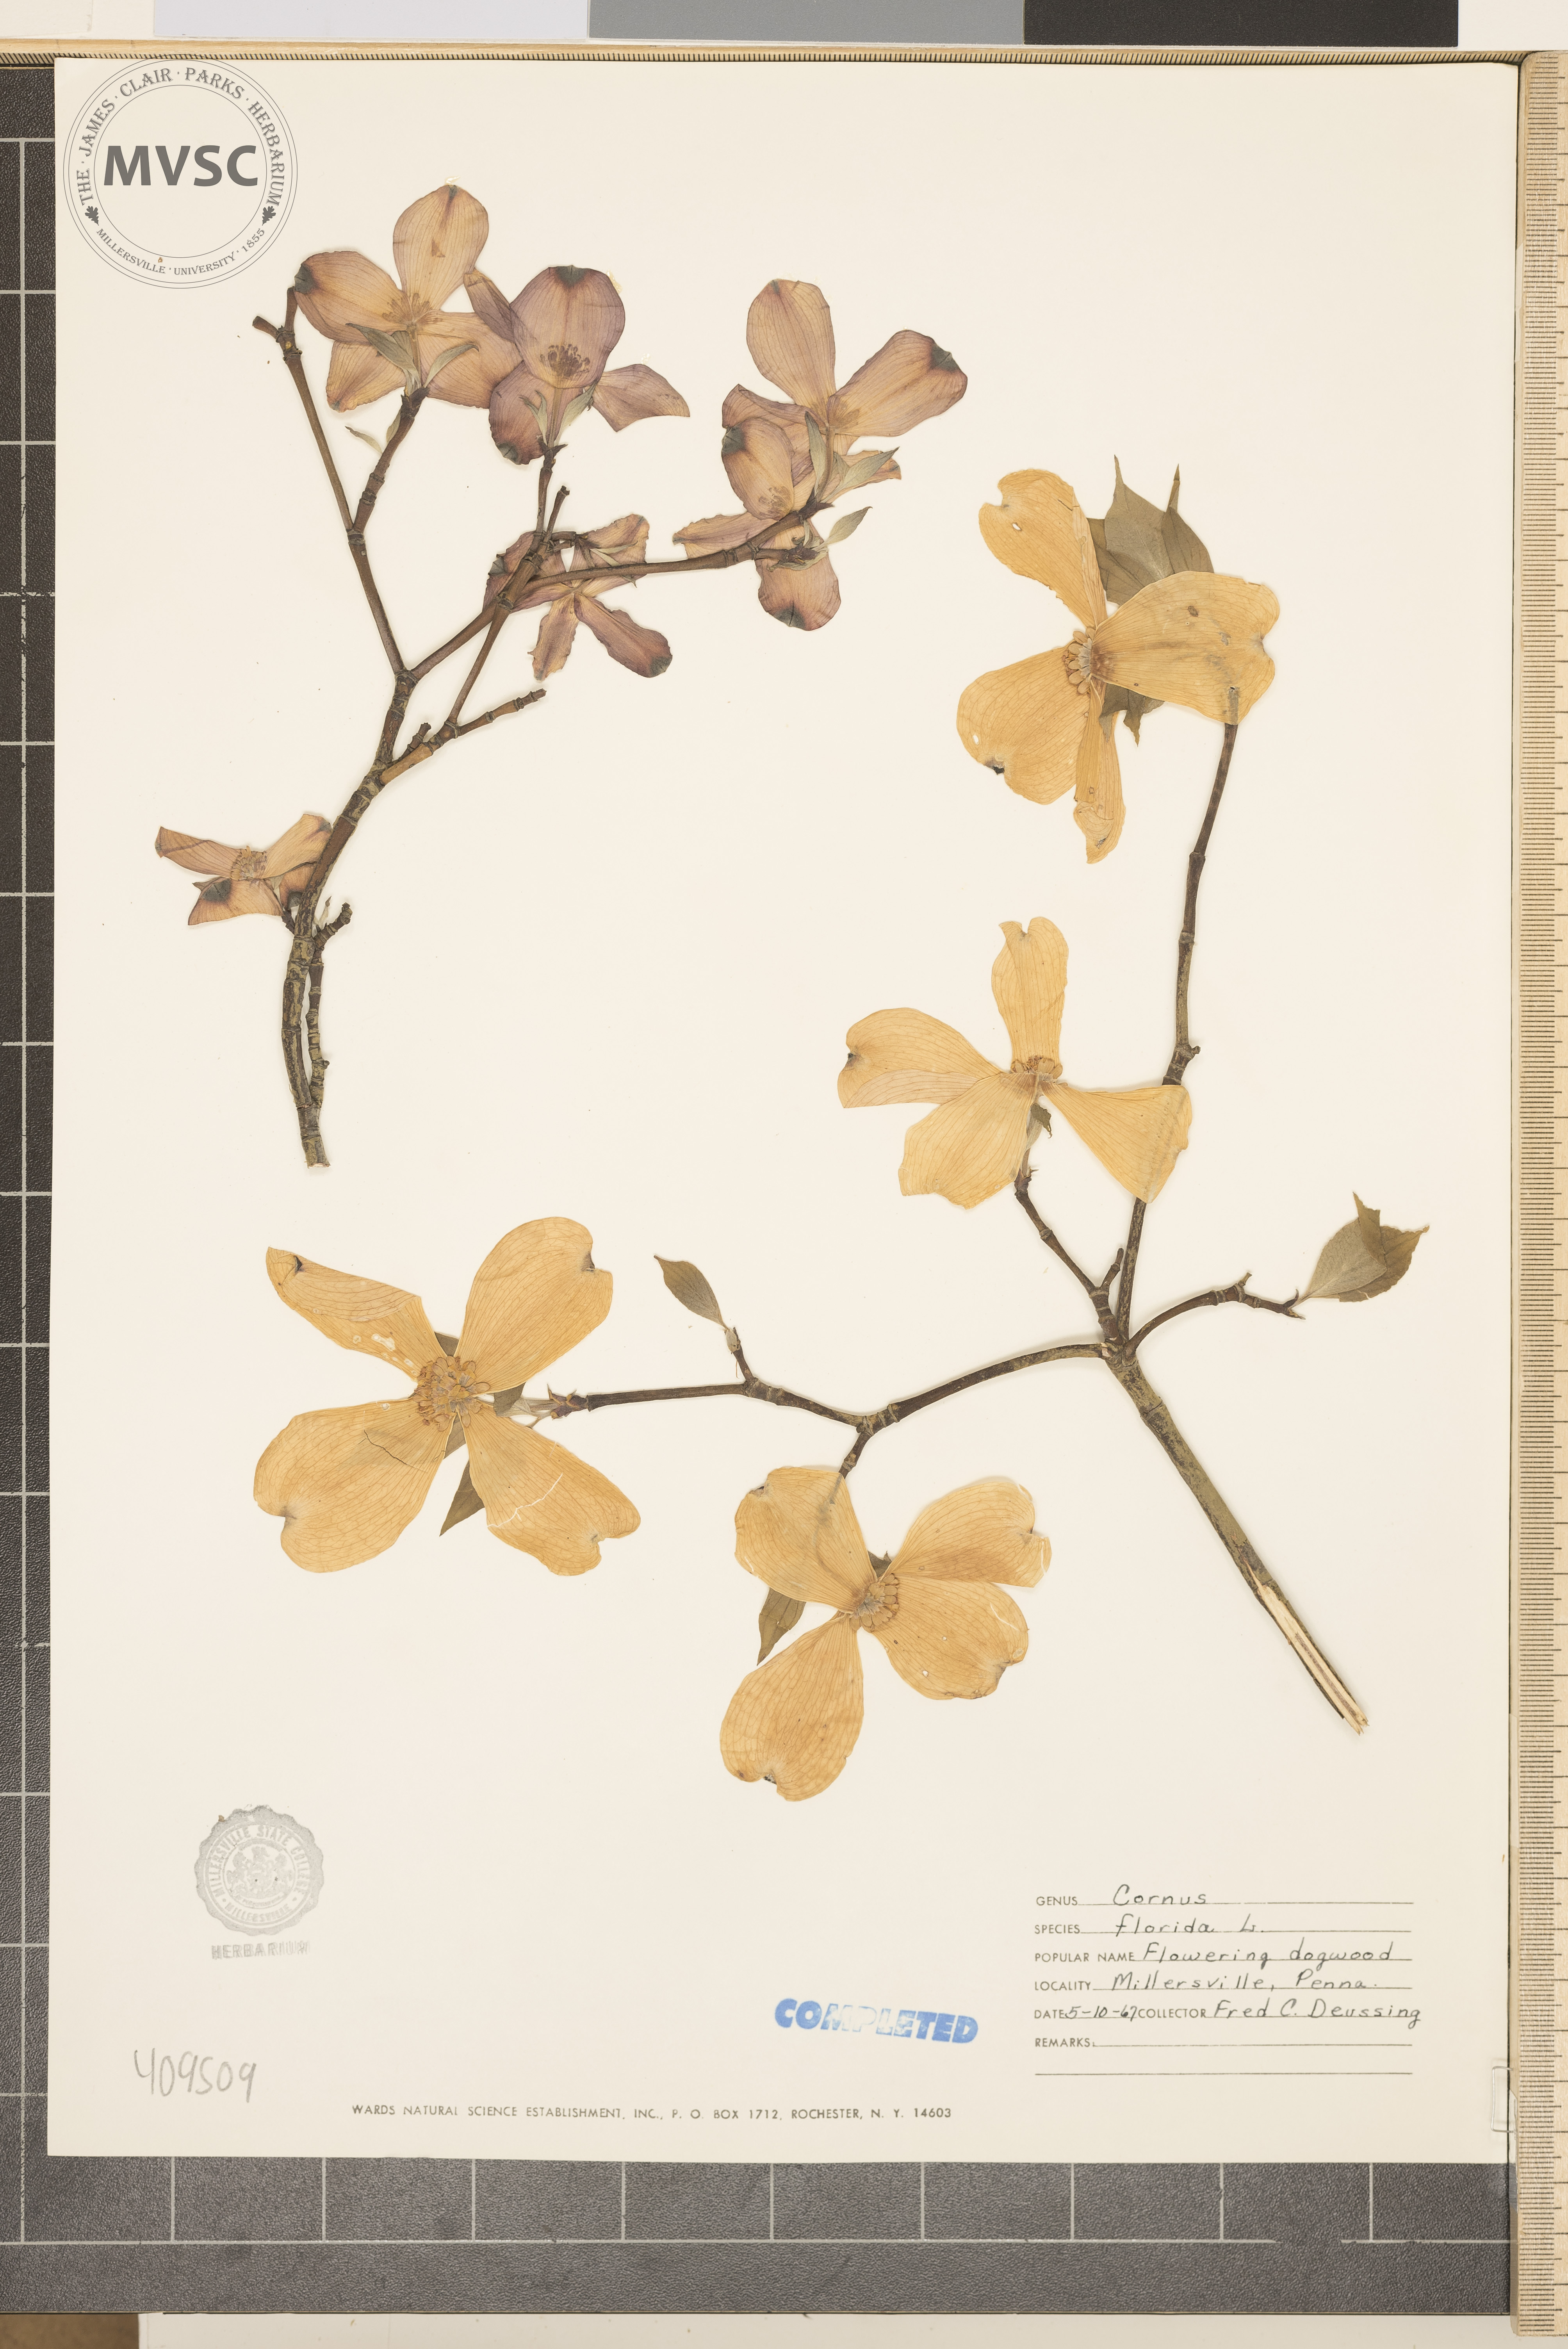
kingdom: Plantae
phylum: Tracheophyta
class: Magnoliopsida
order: Cornales
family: Cornaceae
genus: Cornus
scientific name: Cornus florida
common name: Flowering dogwood
